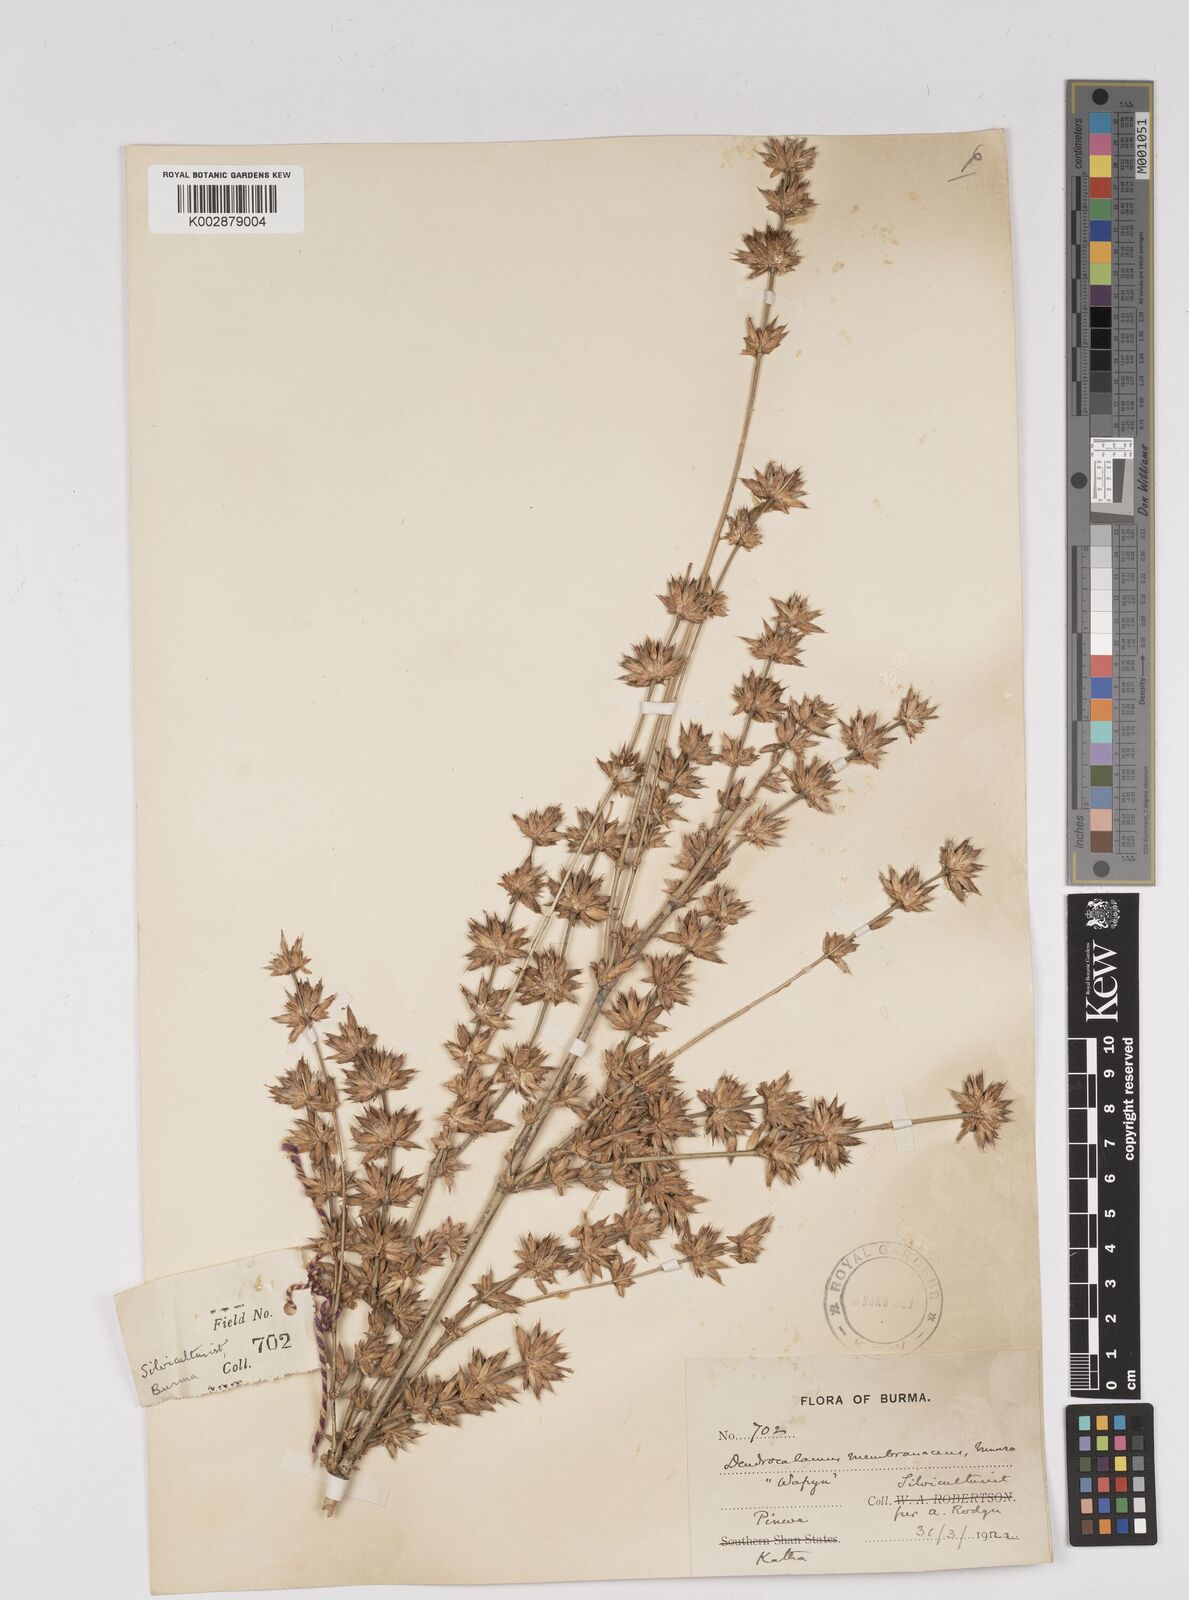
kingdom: Plantae
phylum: Tracheophyta
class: Liliopsida
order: Poales
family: Poaceae
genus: Dendrocalamus
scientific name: Dendrocalamus membranaceus
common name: White bamboo
